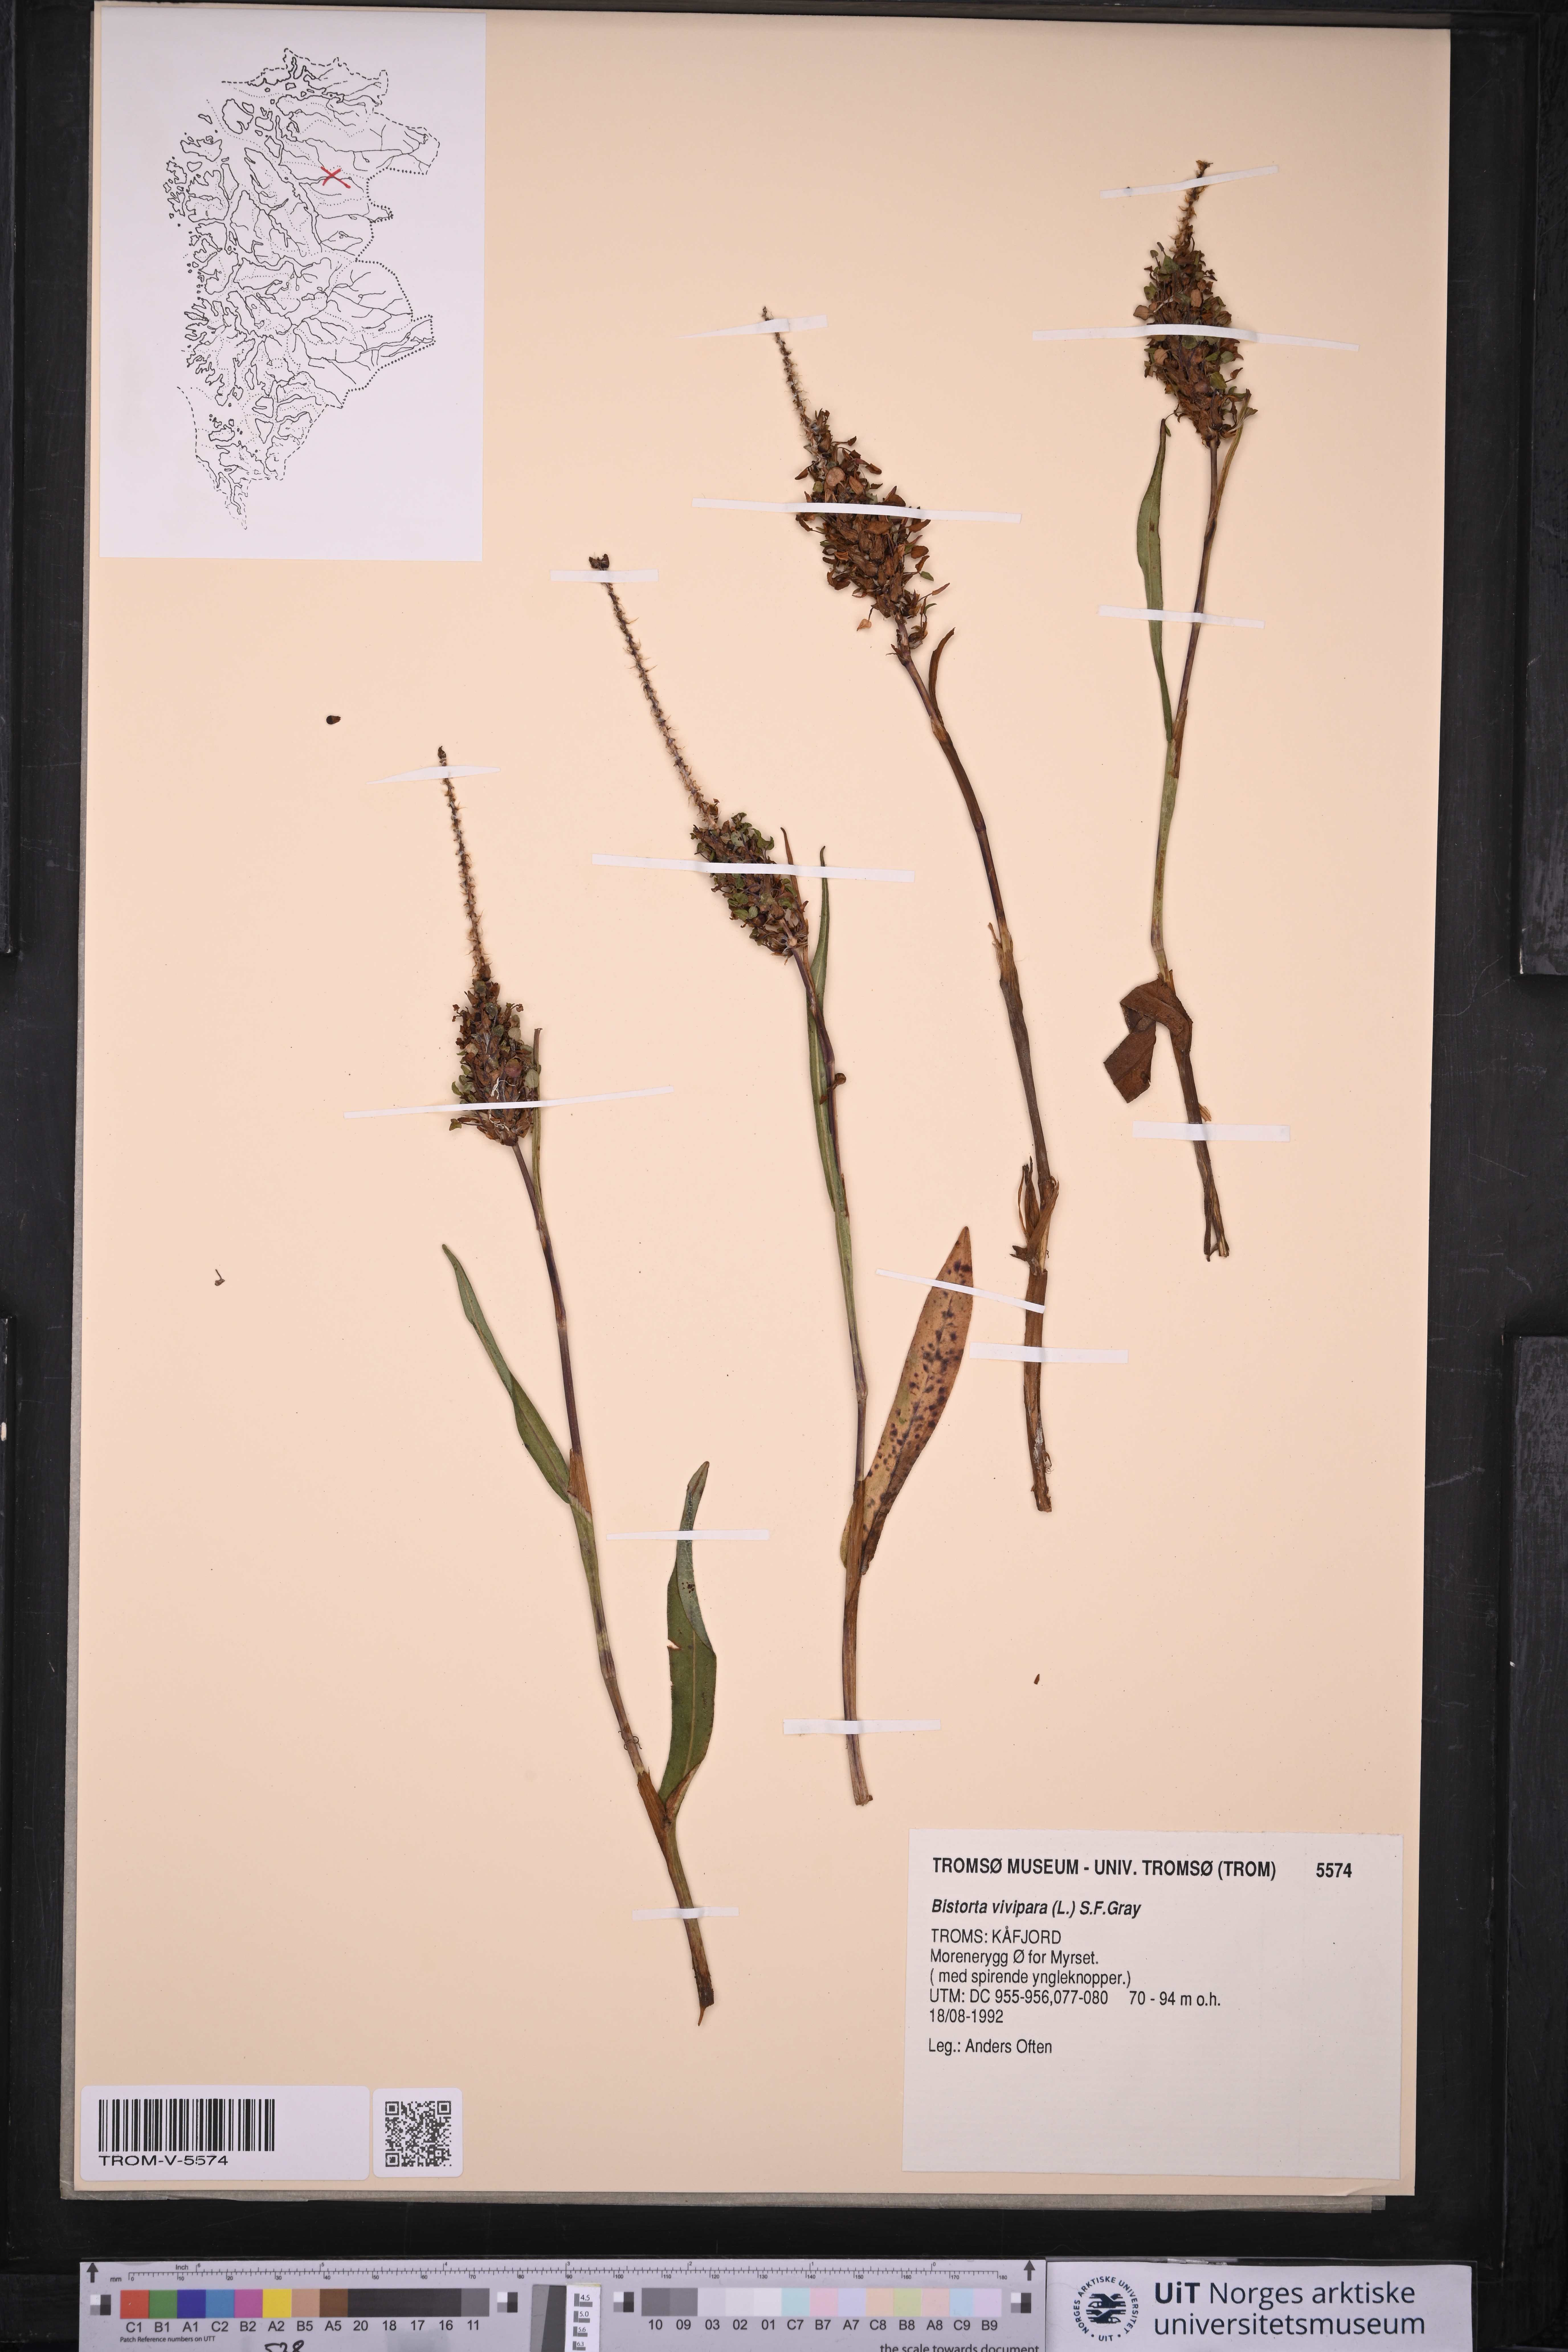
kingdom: Plantae
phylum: Tracheophyta
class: Magnoliopsida
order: Caryophyllales
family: Polygonaceae
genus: Bistorta
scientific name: Bistorta vivipara
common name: Alpine bistort
